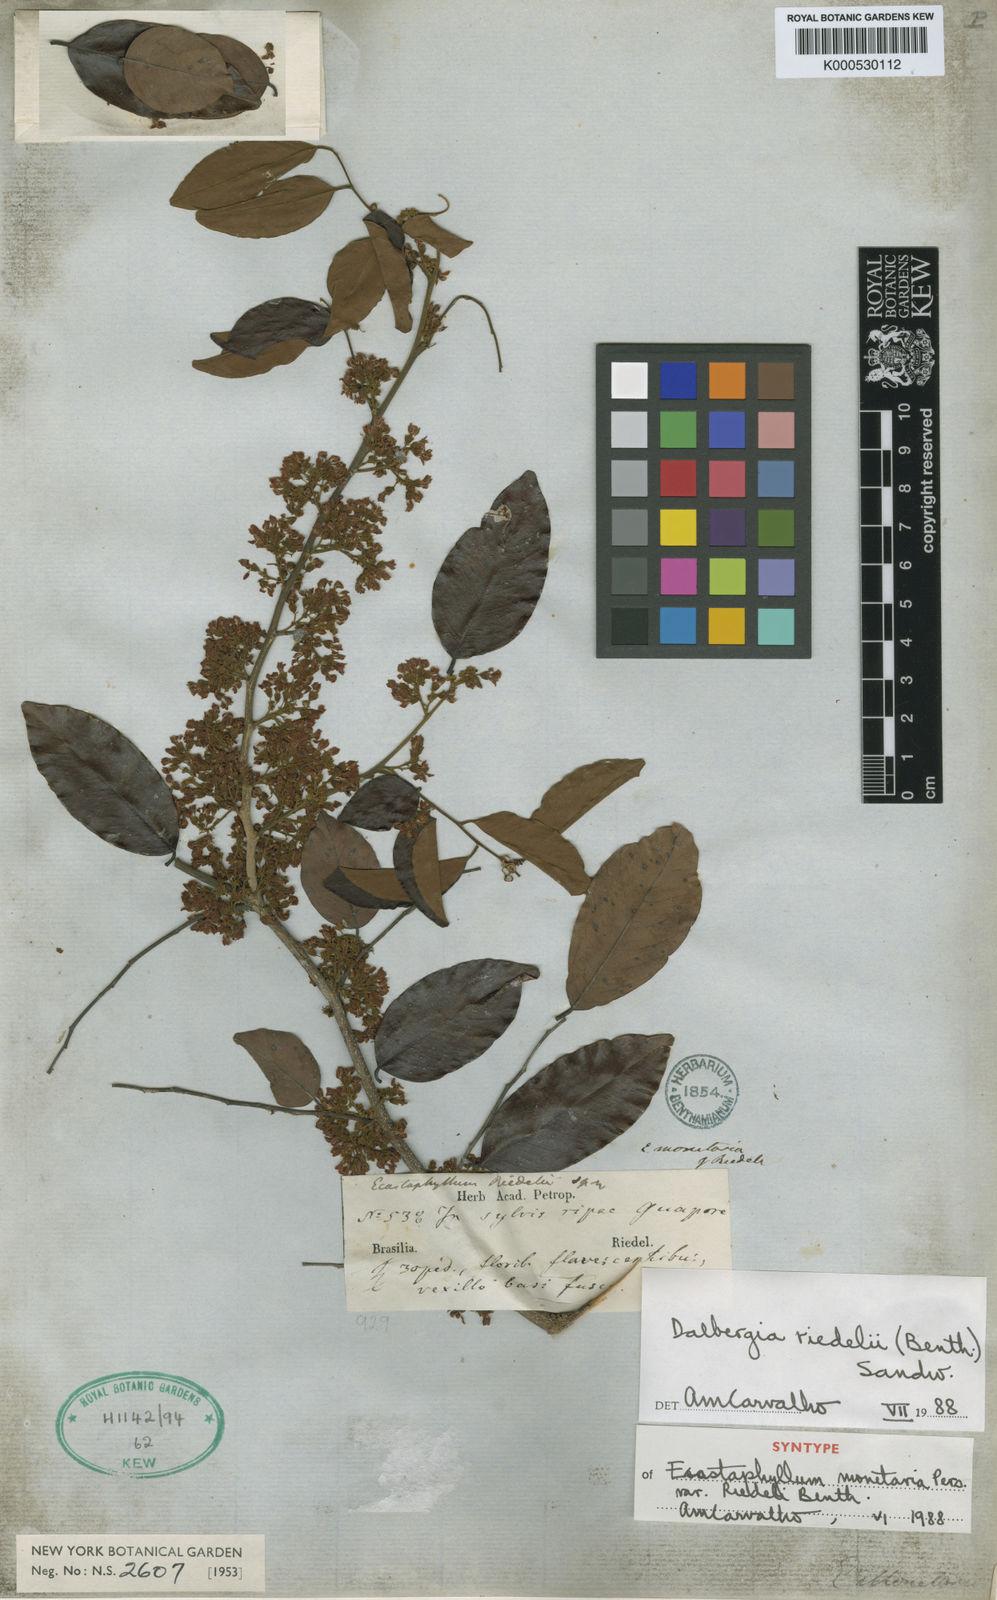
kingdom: Plantae
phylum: Tracheophyta
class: Magnoliopsida
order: Fabales
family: Fabaceae
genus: Dalbergia
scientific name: Dalbergia riedelii
